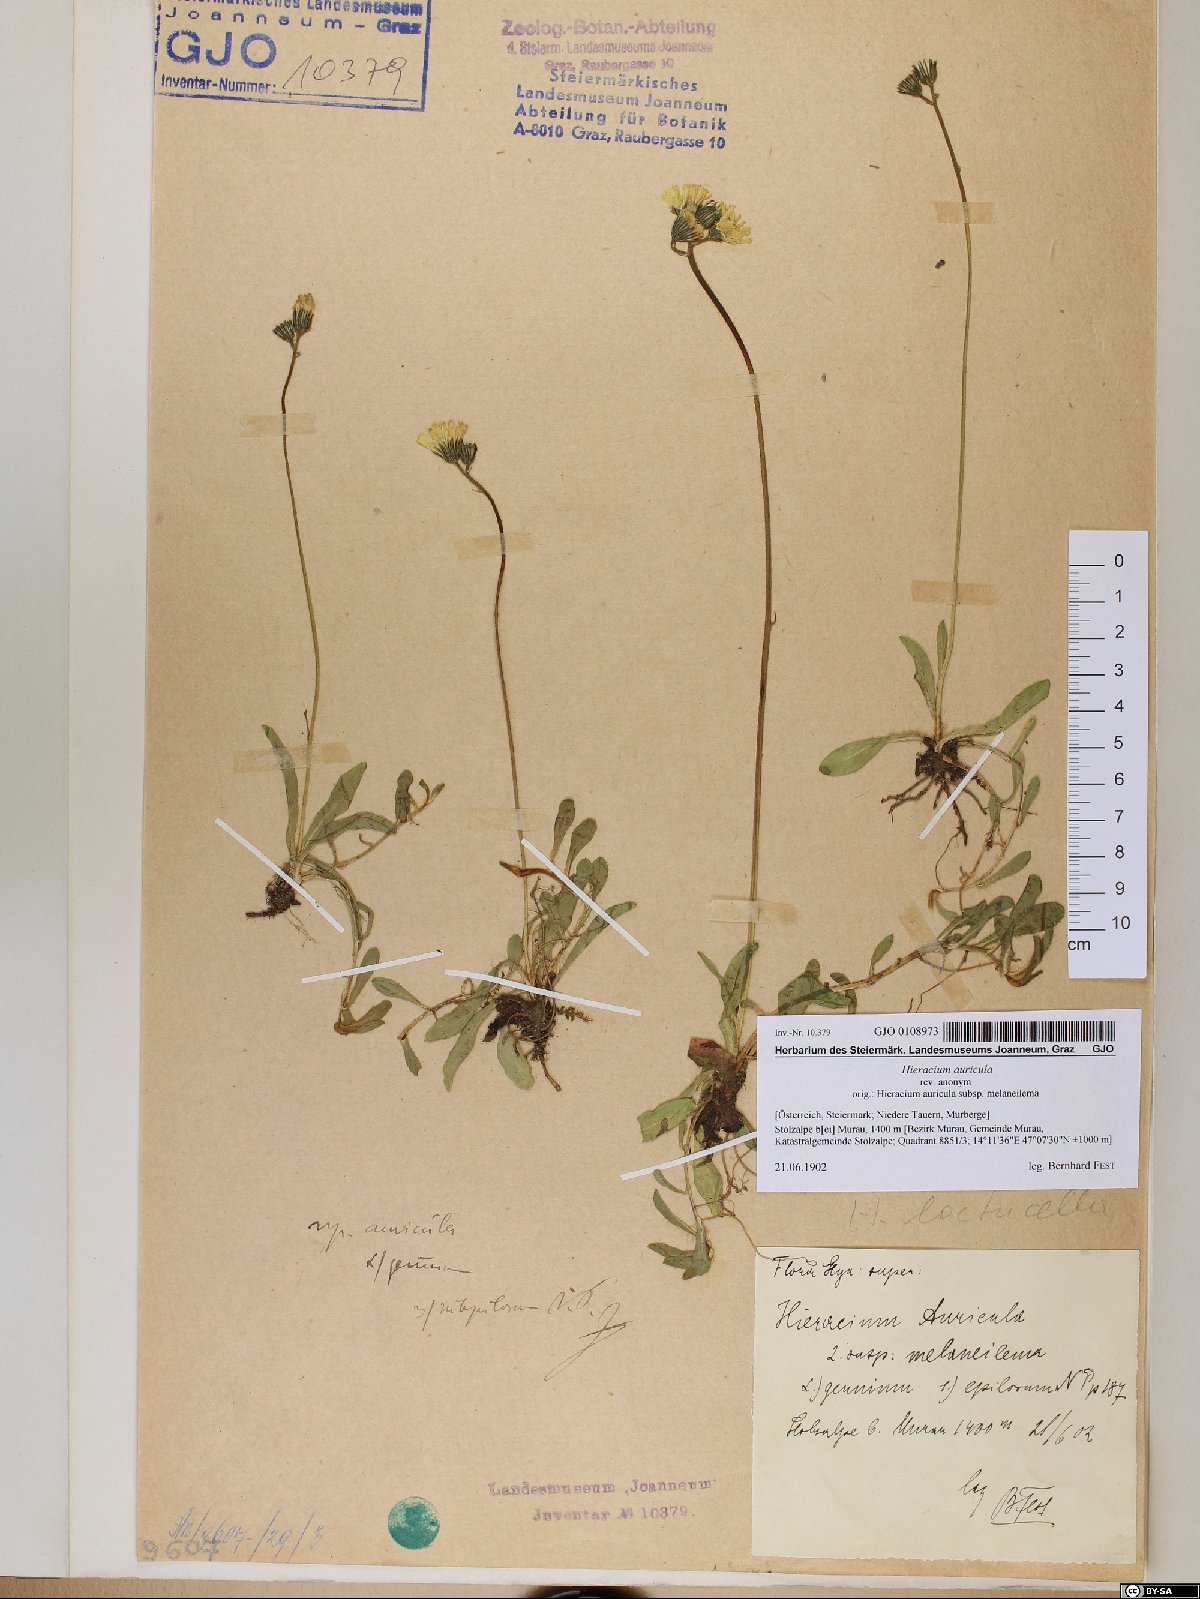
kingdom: Plantae
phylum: Tracheophyta
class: Magnoliopsida
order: Asterales
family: Asteraceae
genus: Hieracium
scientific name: Hieracium auricula
